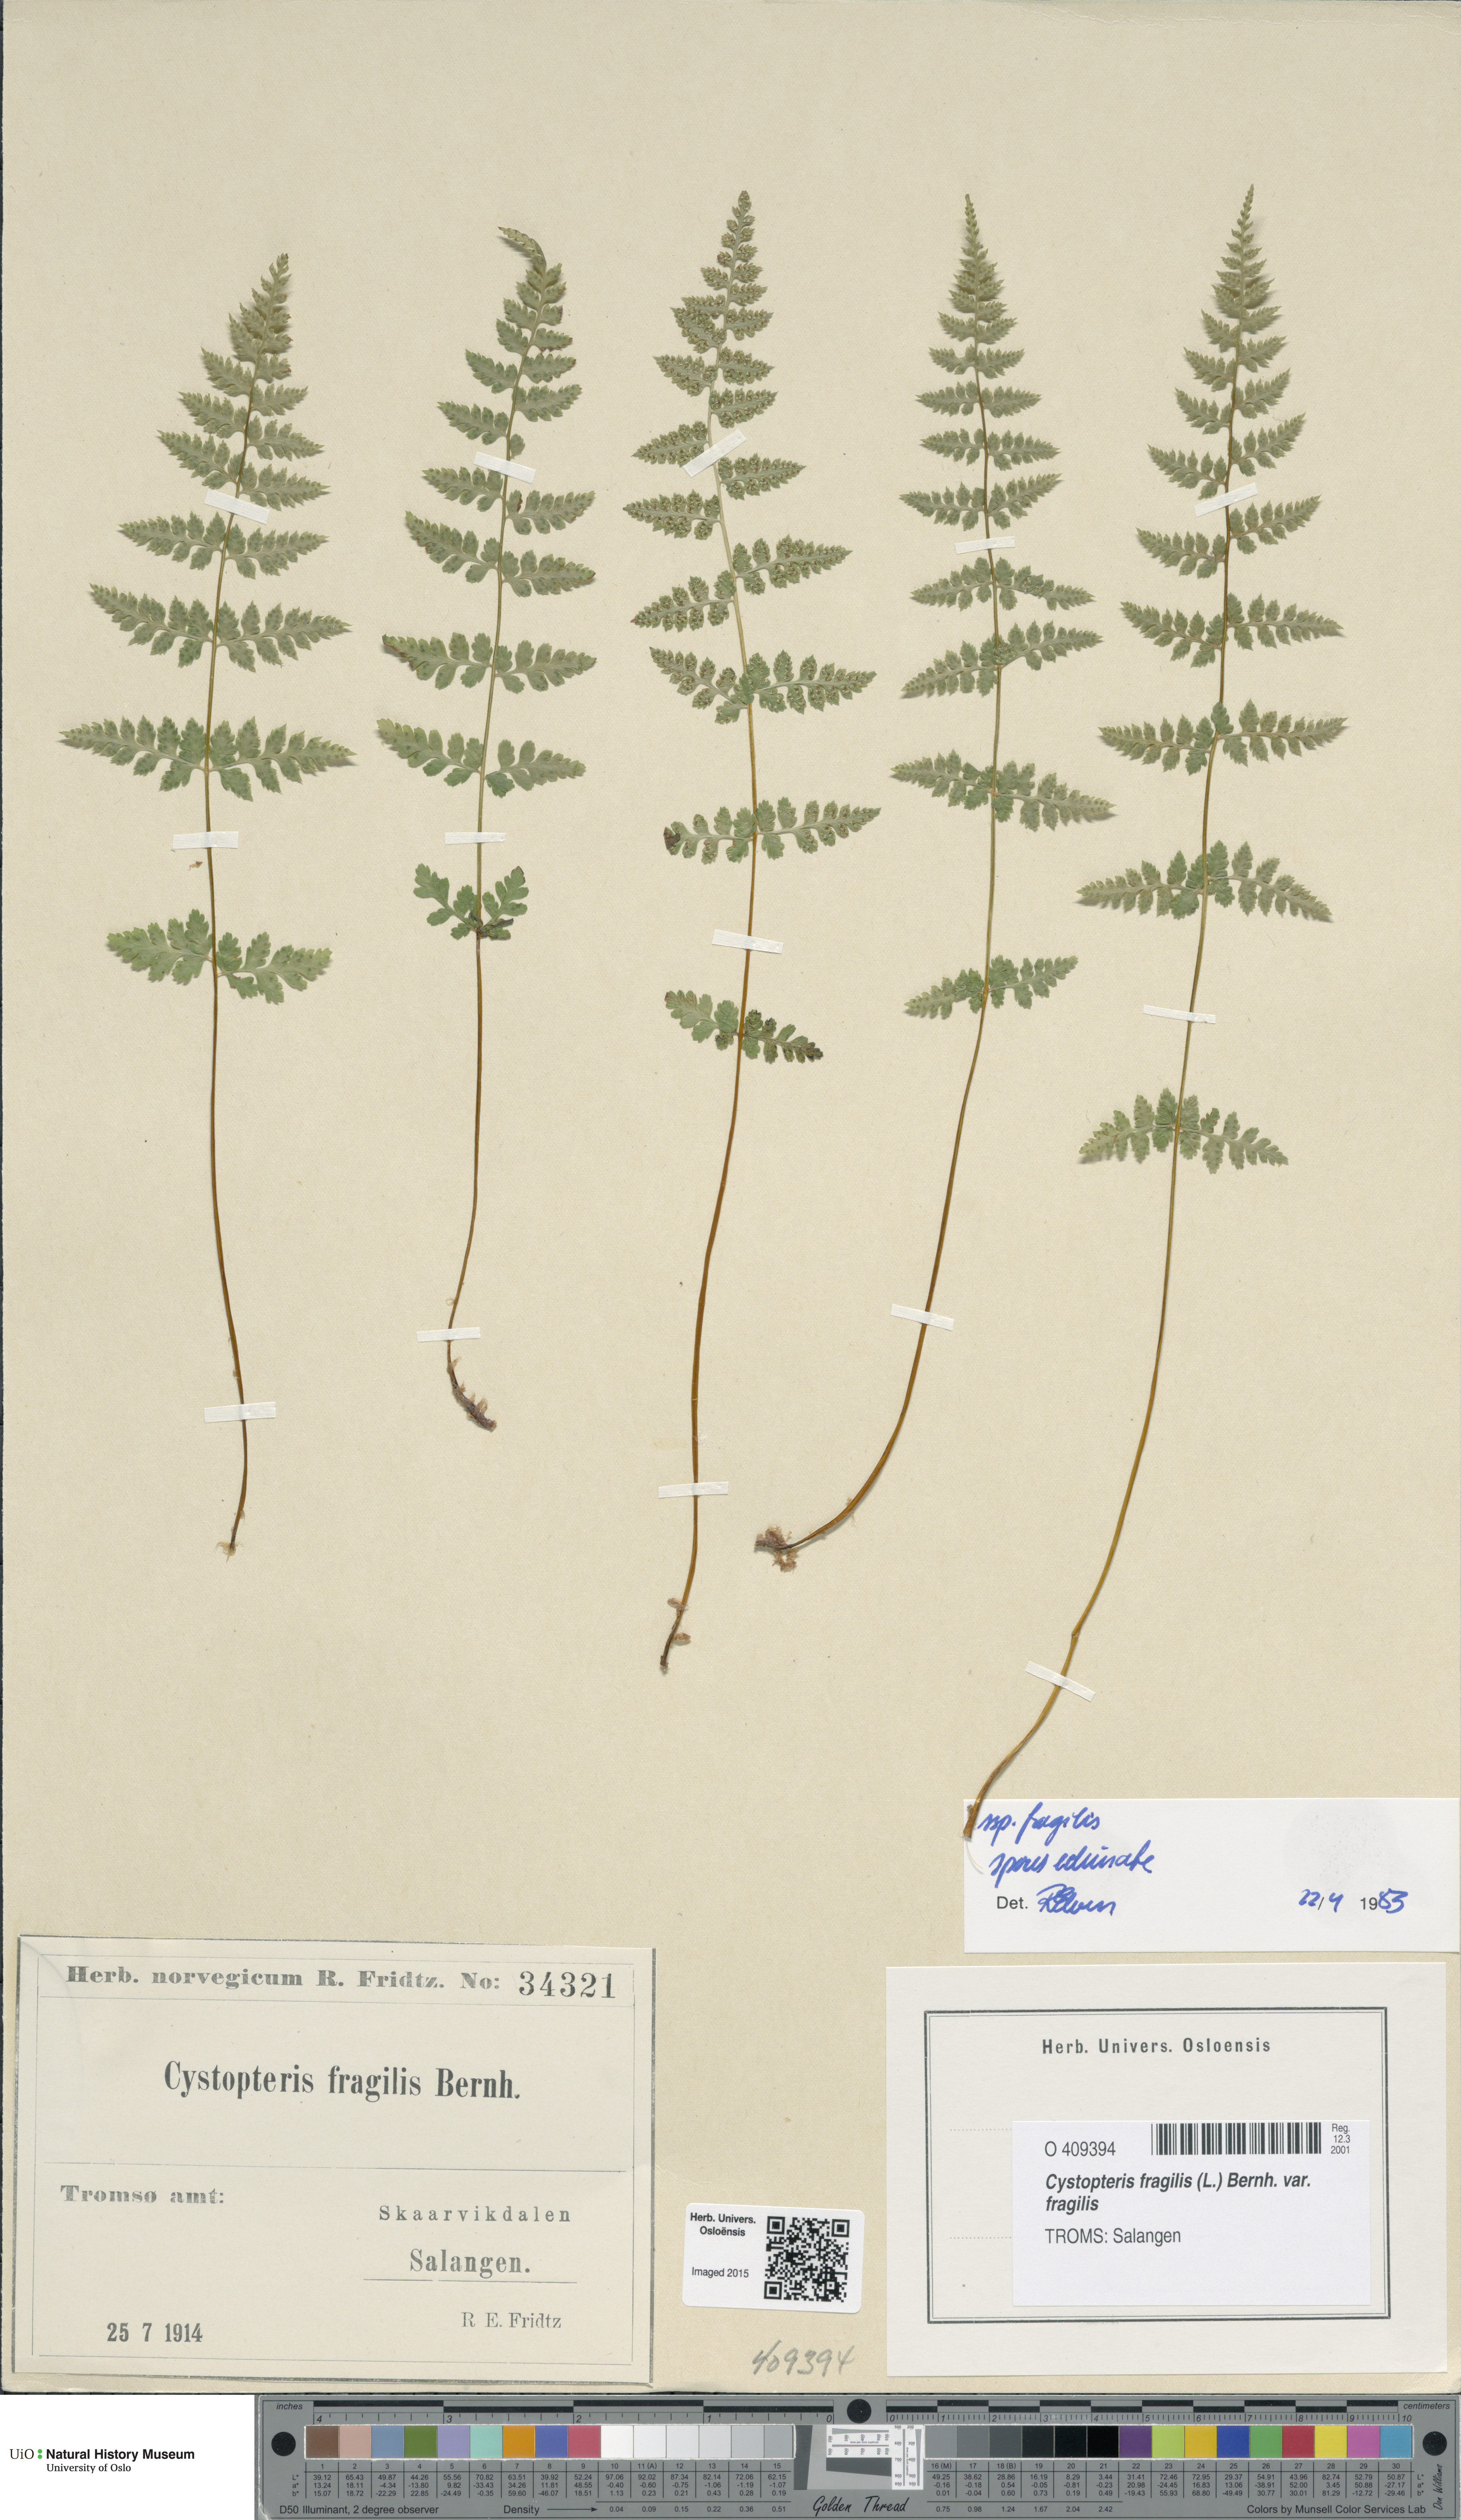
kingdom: Plantae
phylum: Tracheophyta
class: Polypodiopsida
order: Polypodiales
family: Cystopteridaceae
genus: Cystopteris
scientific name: Cystopteris fragilis
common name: Brittle bladder fern
